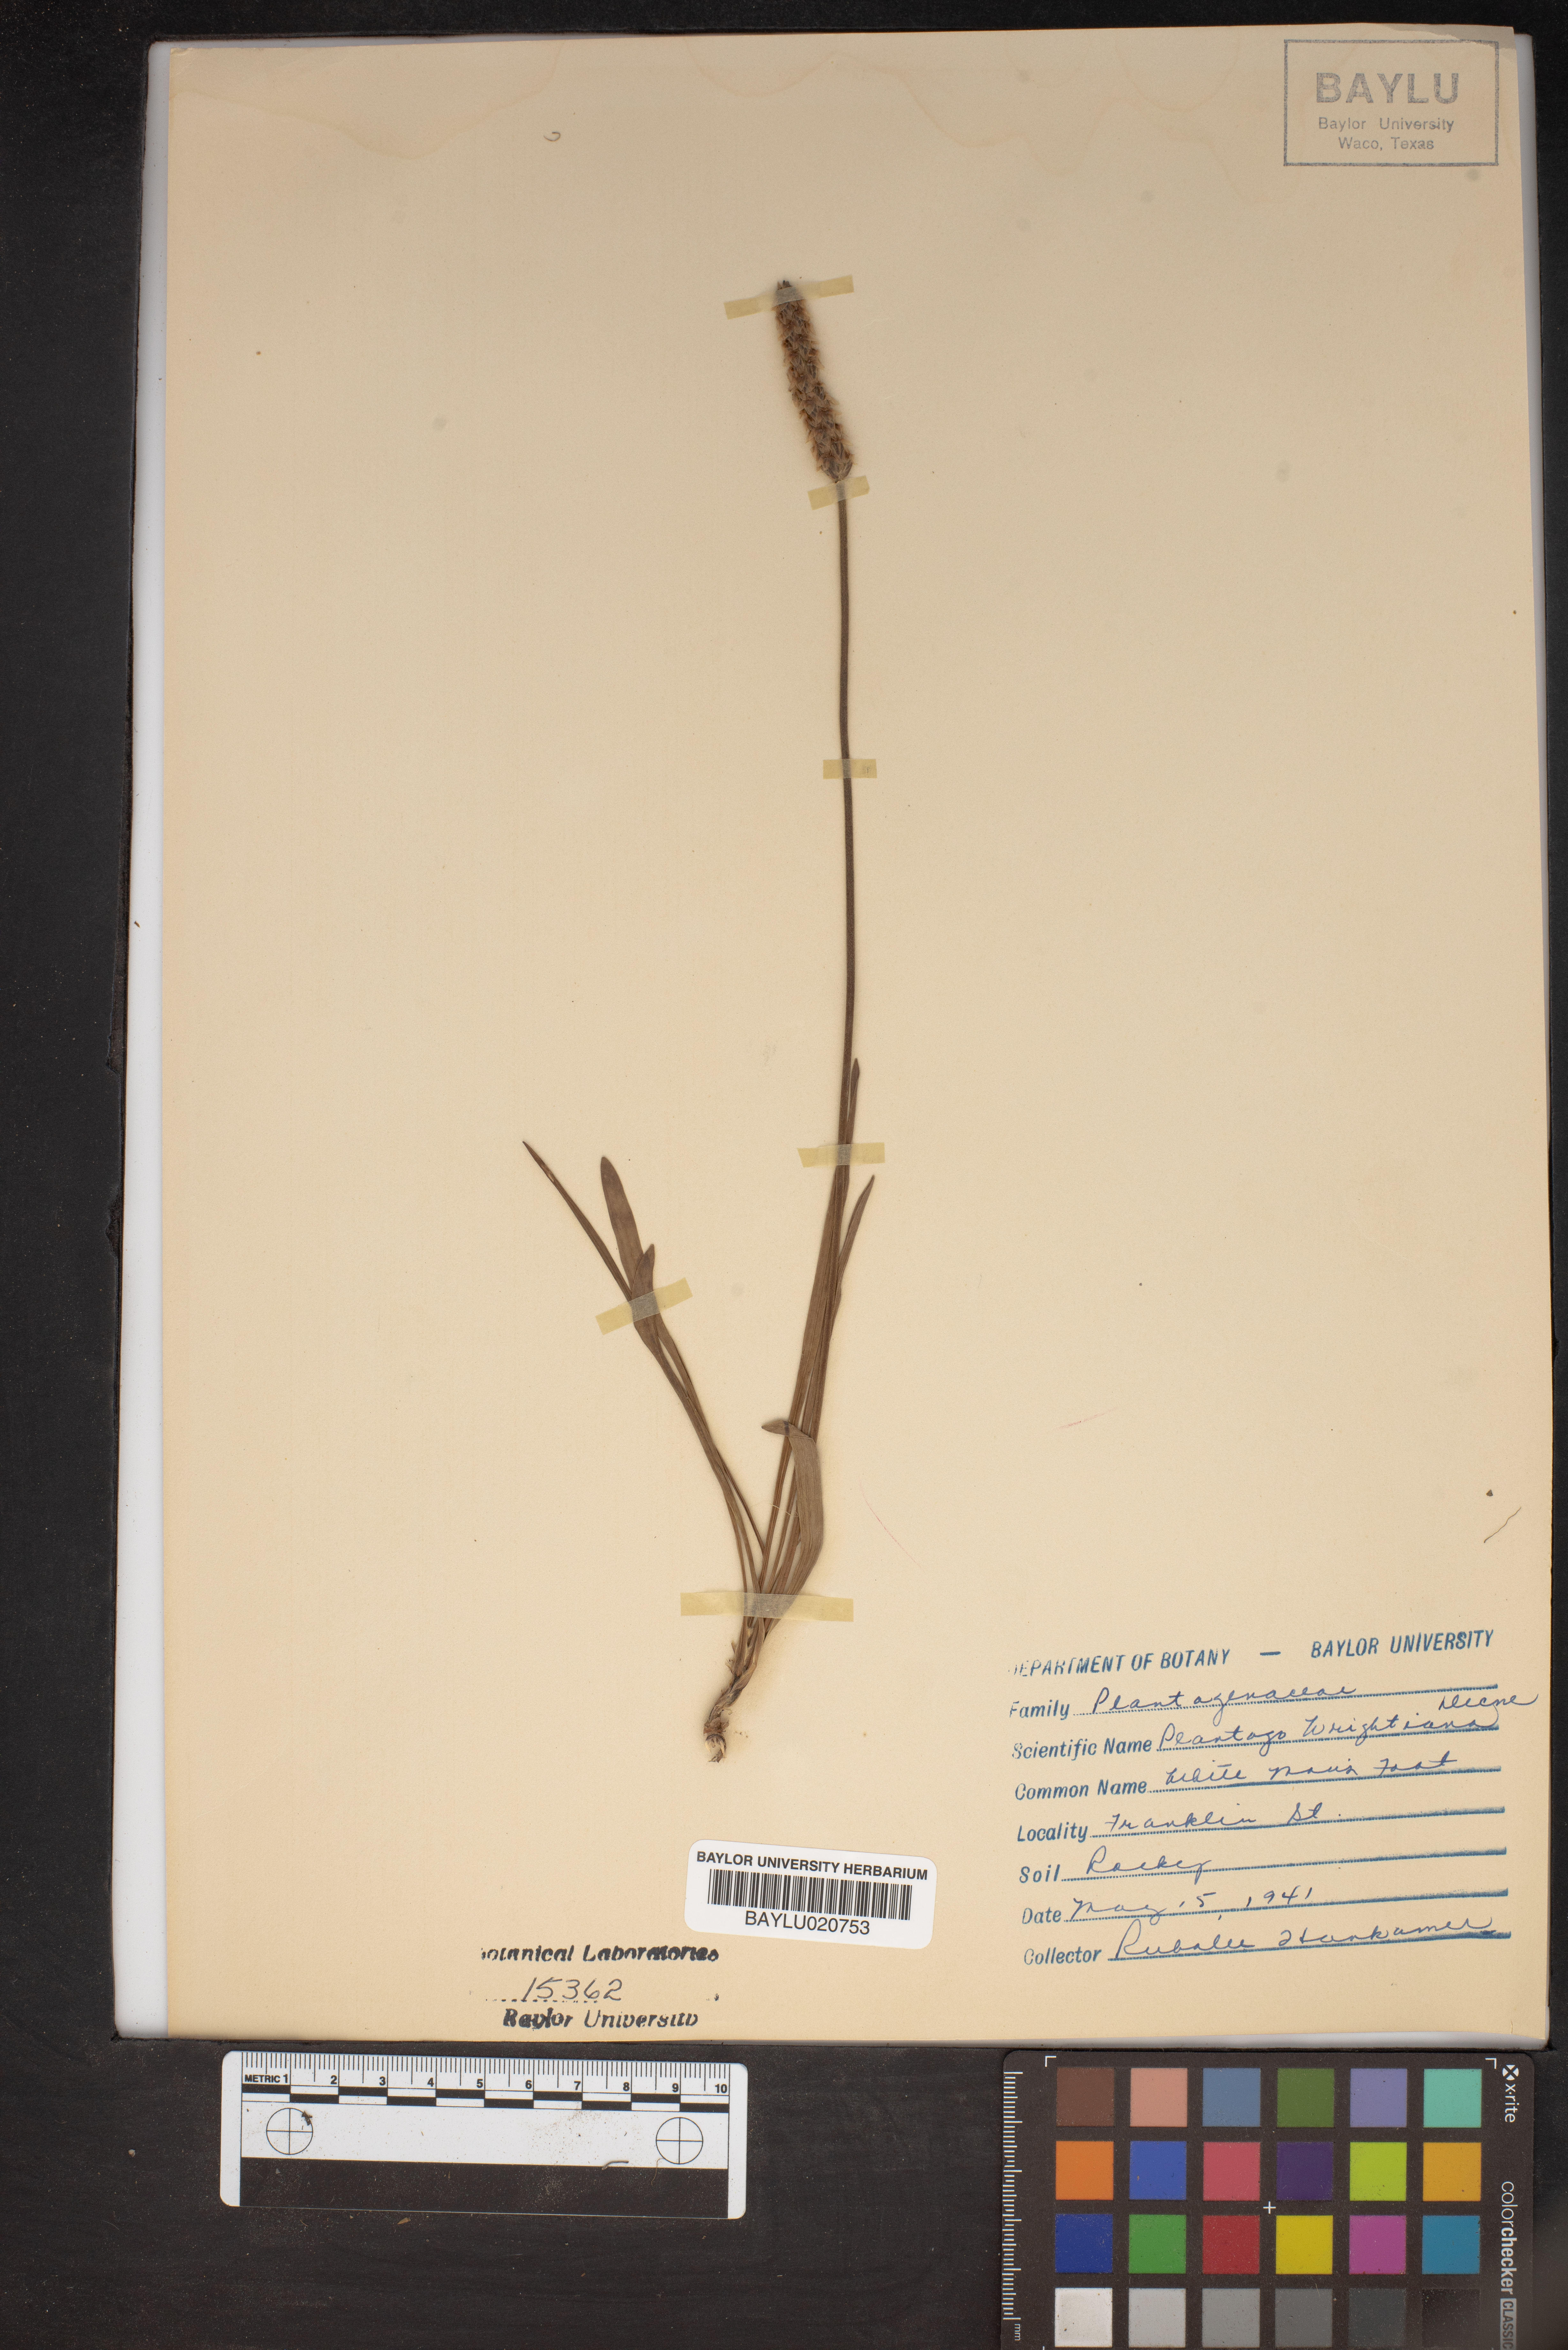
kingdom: Plantae
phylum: Tracheophyta
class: Magnoliopsida
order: Lamiales
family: Plantaginaceae
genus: Plantago
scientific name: Plantago wrightiana
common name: Wright's plantain
